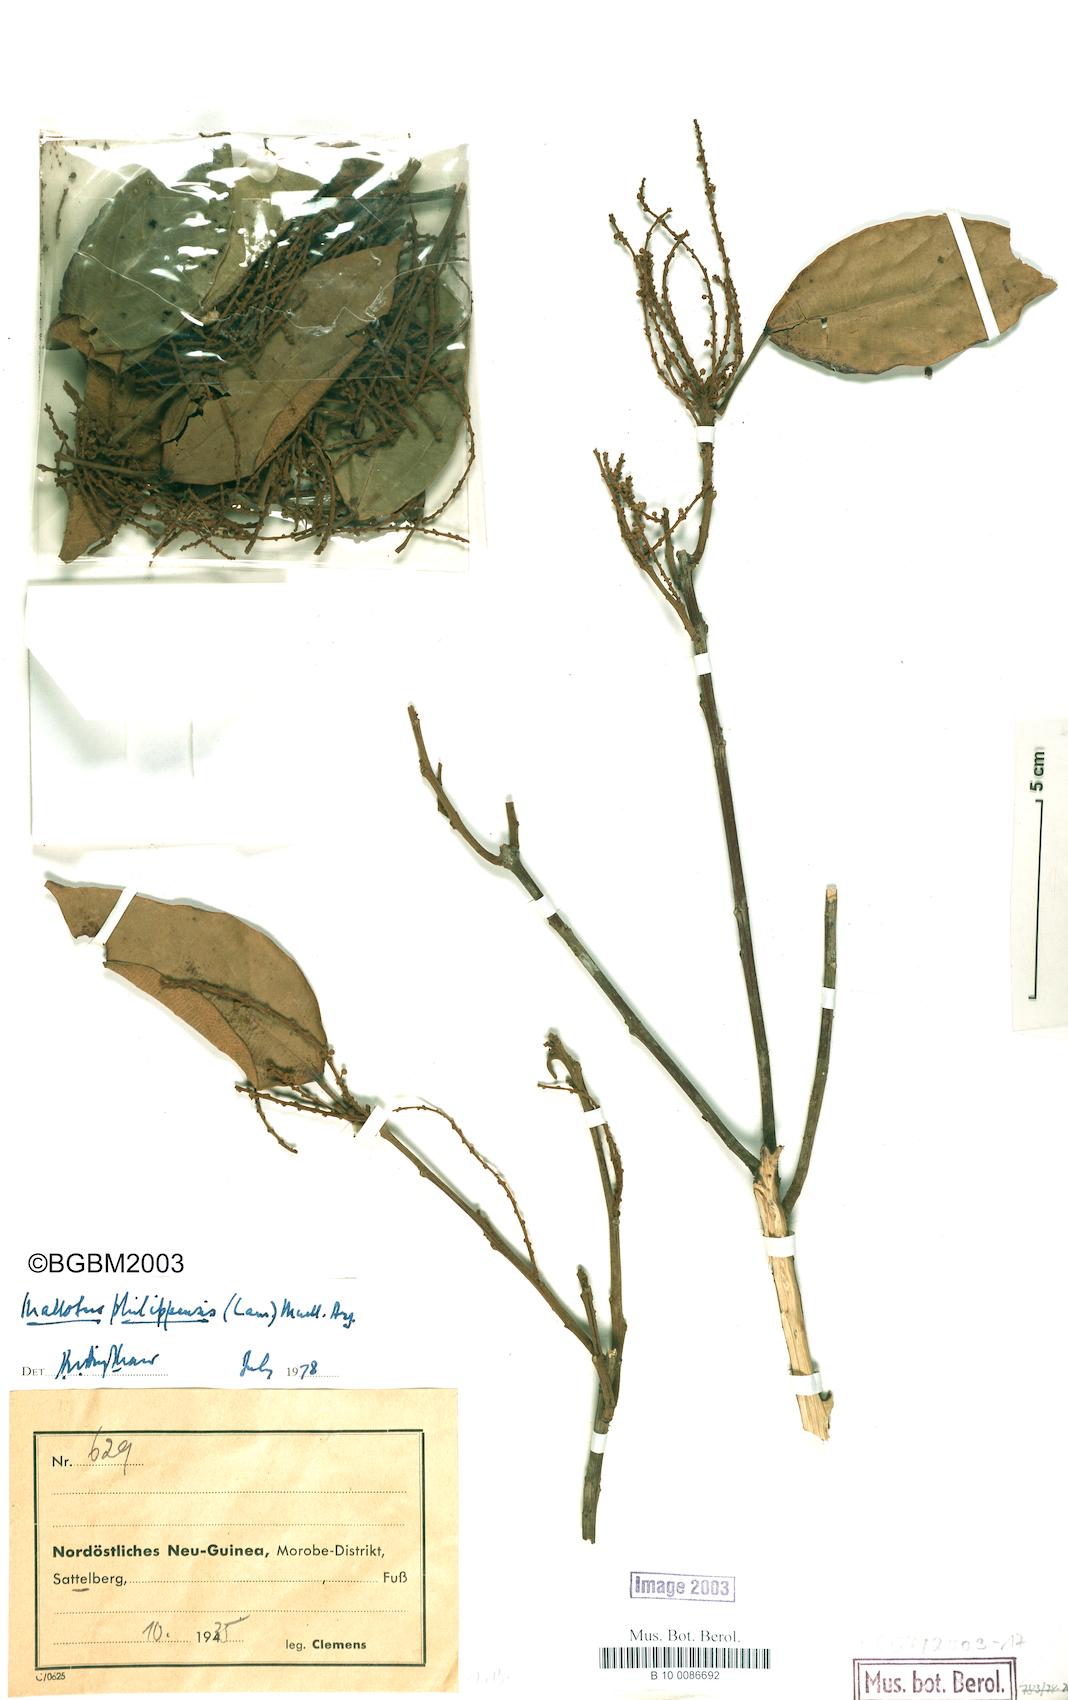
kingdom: Plantae
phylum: Tracheophyta
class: Magnoliopsida
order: Malpighiales
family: Euphorbiaceae
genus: Mallotus
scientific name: Mallotus philippensis
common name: Kamala tree
